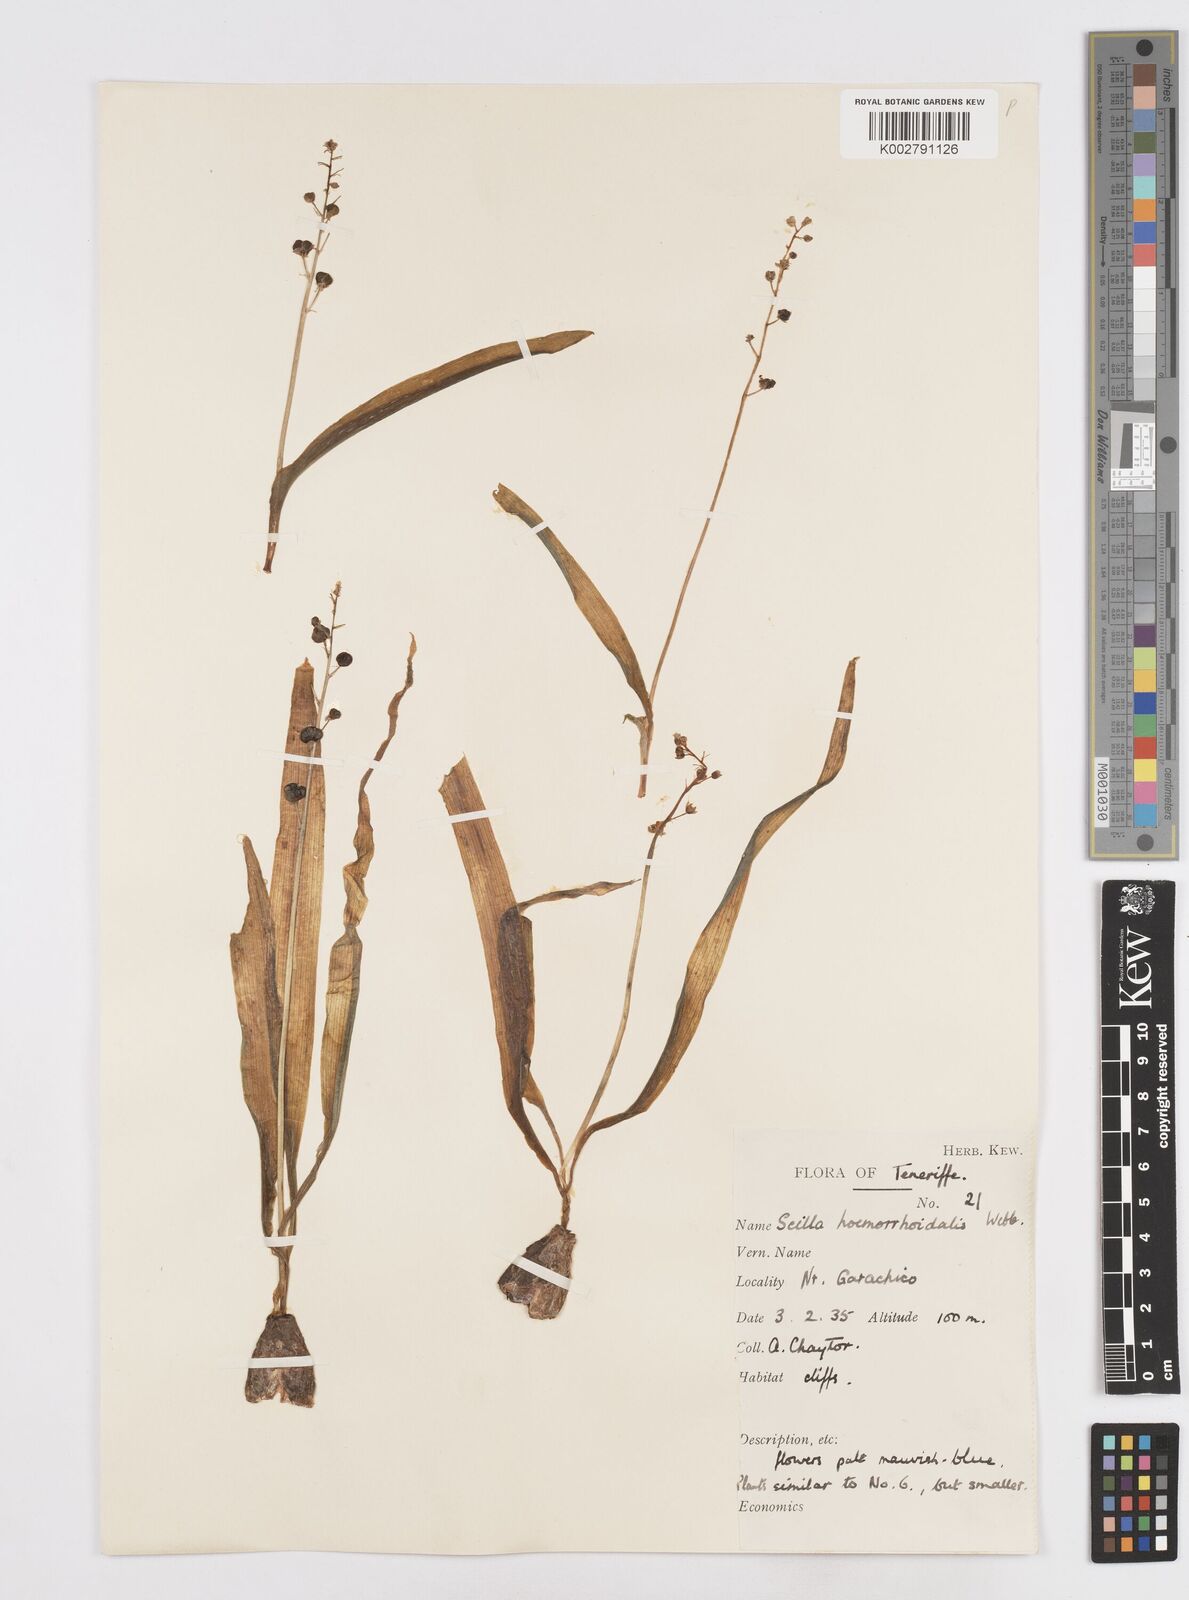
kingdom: Plantae
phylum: Tracheophyta
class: Liliopsida
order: Asparagales
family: Asparagaceae
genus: Scilla
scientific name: Scilla haemorrhoidalis
